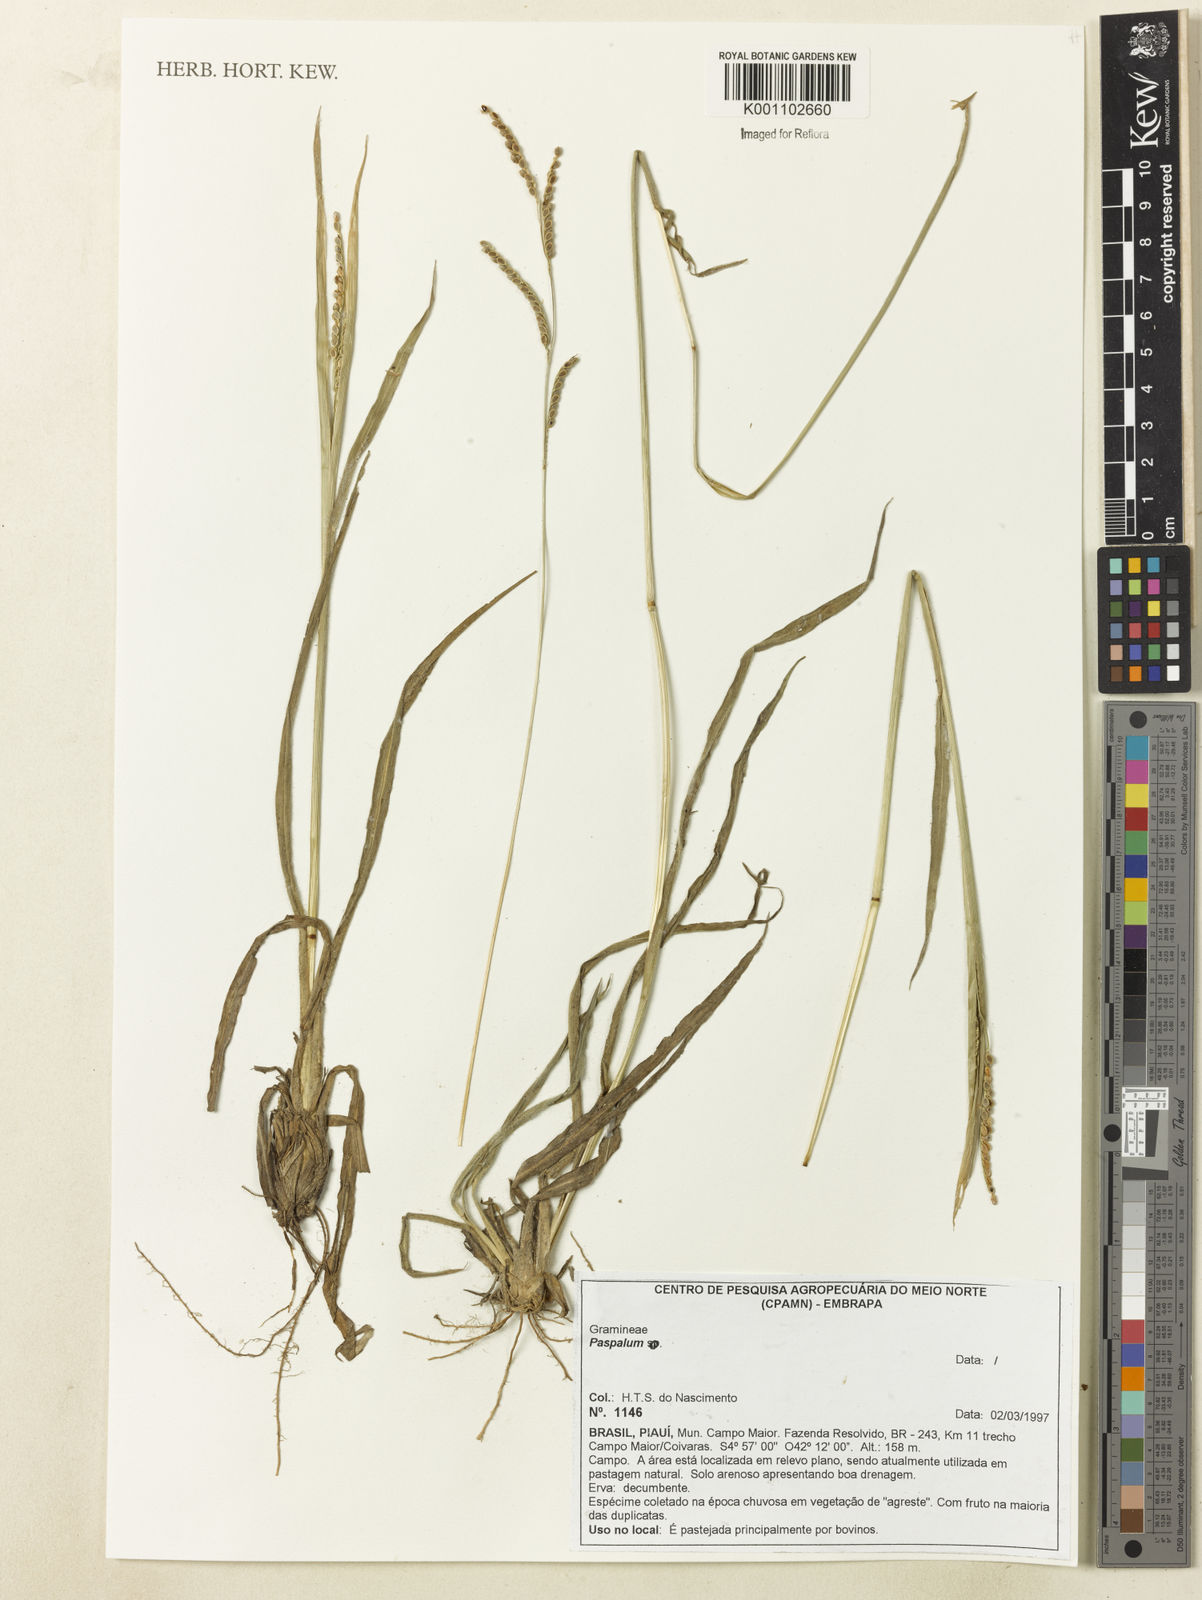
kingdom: Plantae
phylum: Tracheophyta
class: Liliopsida
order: Poales
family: Poaceae
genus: Paspalum
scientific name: Paspalum
